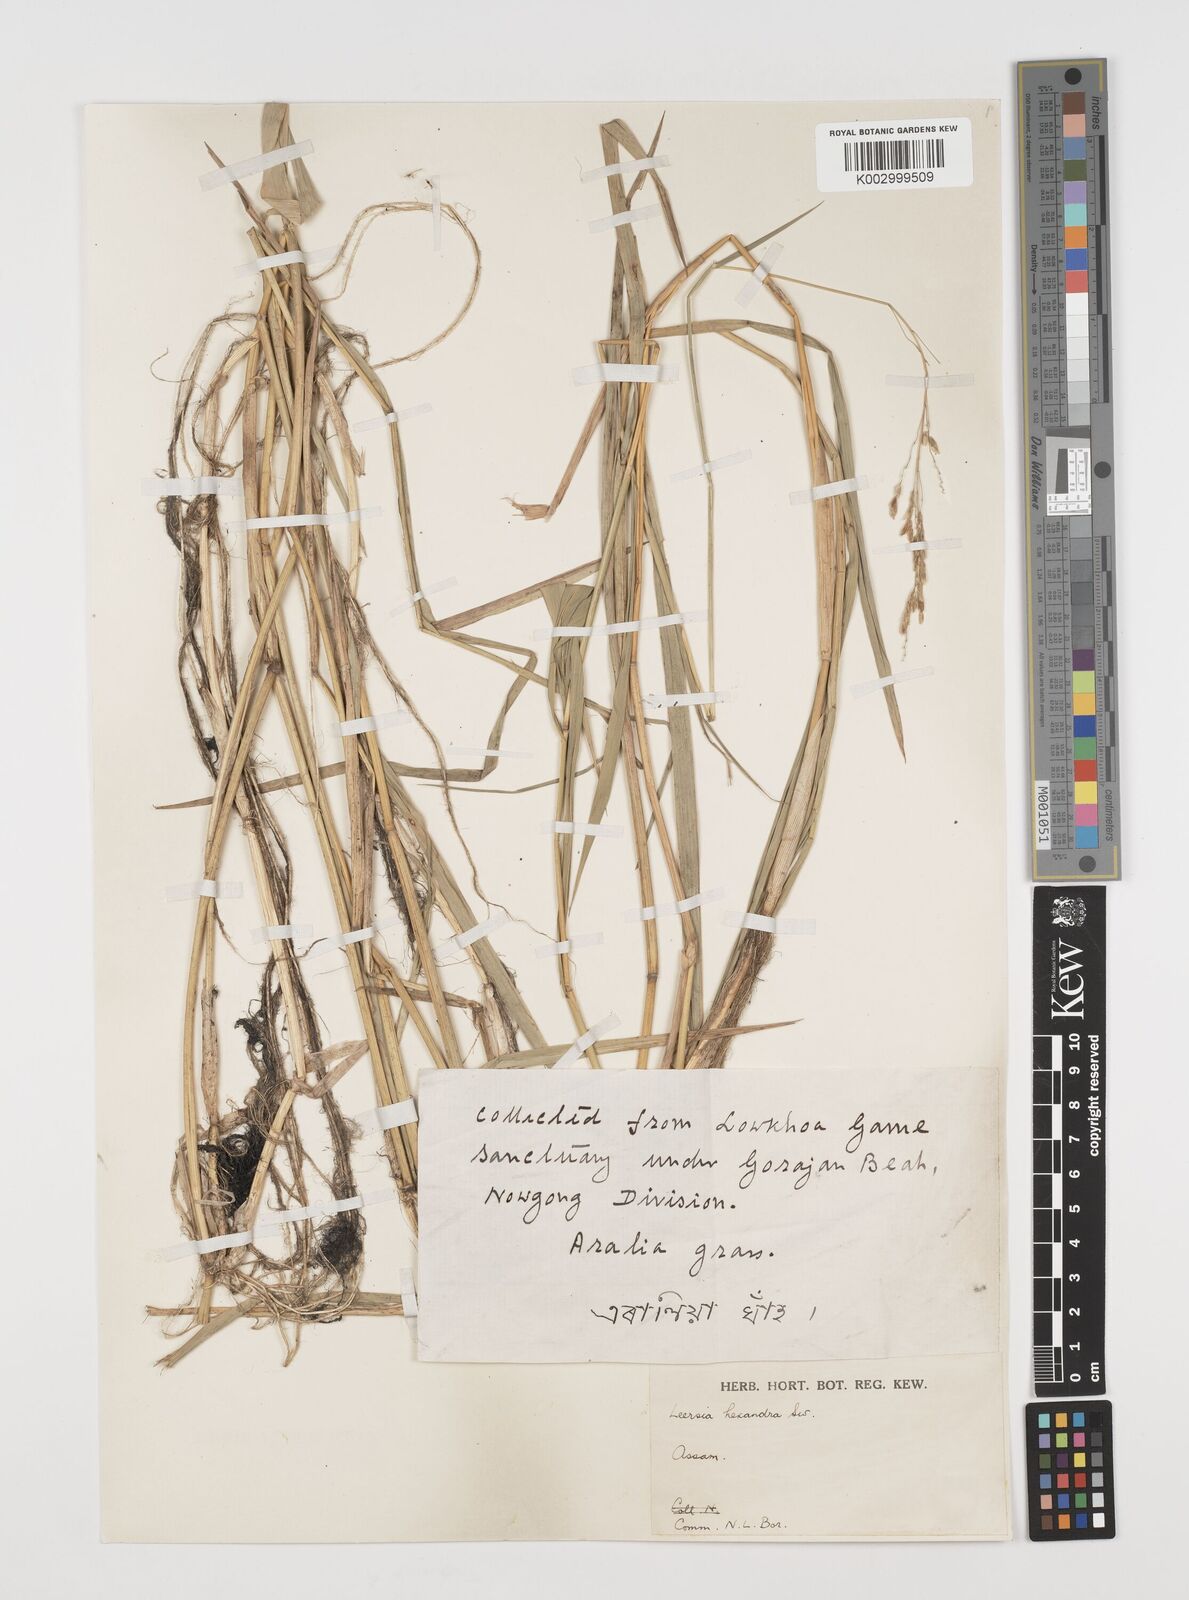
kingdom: Plantae
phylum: Tracheophyta
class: Liliopsida
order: Poales
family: Poaceae
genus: Leersia
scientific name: Leersia hexandra
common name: Southern cut grass
